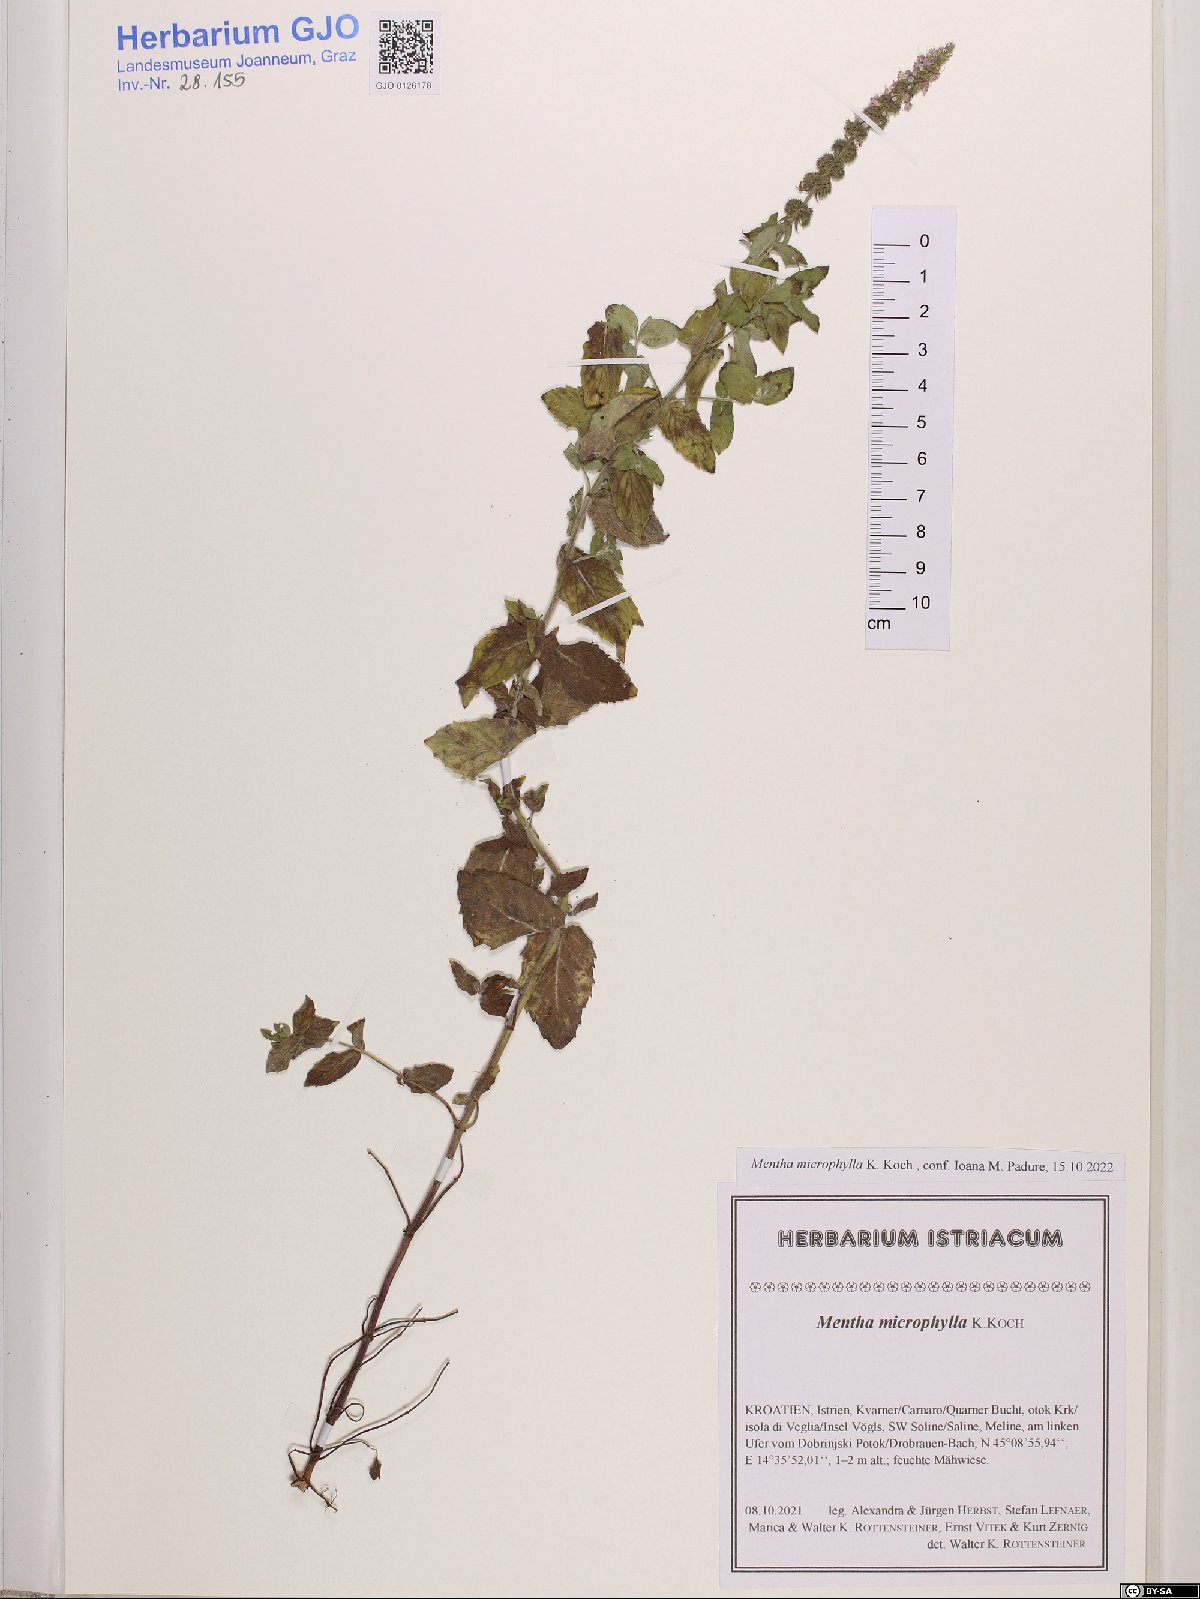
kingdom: Plantae
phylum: Tracheophyta
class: Magnoliopsida
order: Lamiales
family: Lamiaceae
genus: Mentha
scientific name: Mentha spicata
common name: Spearmint
